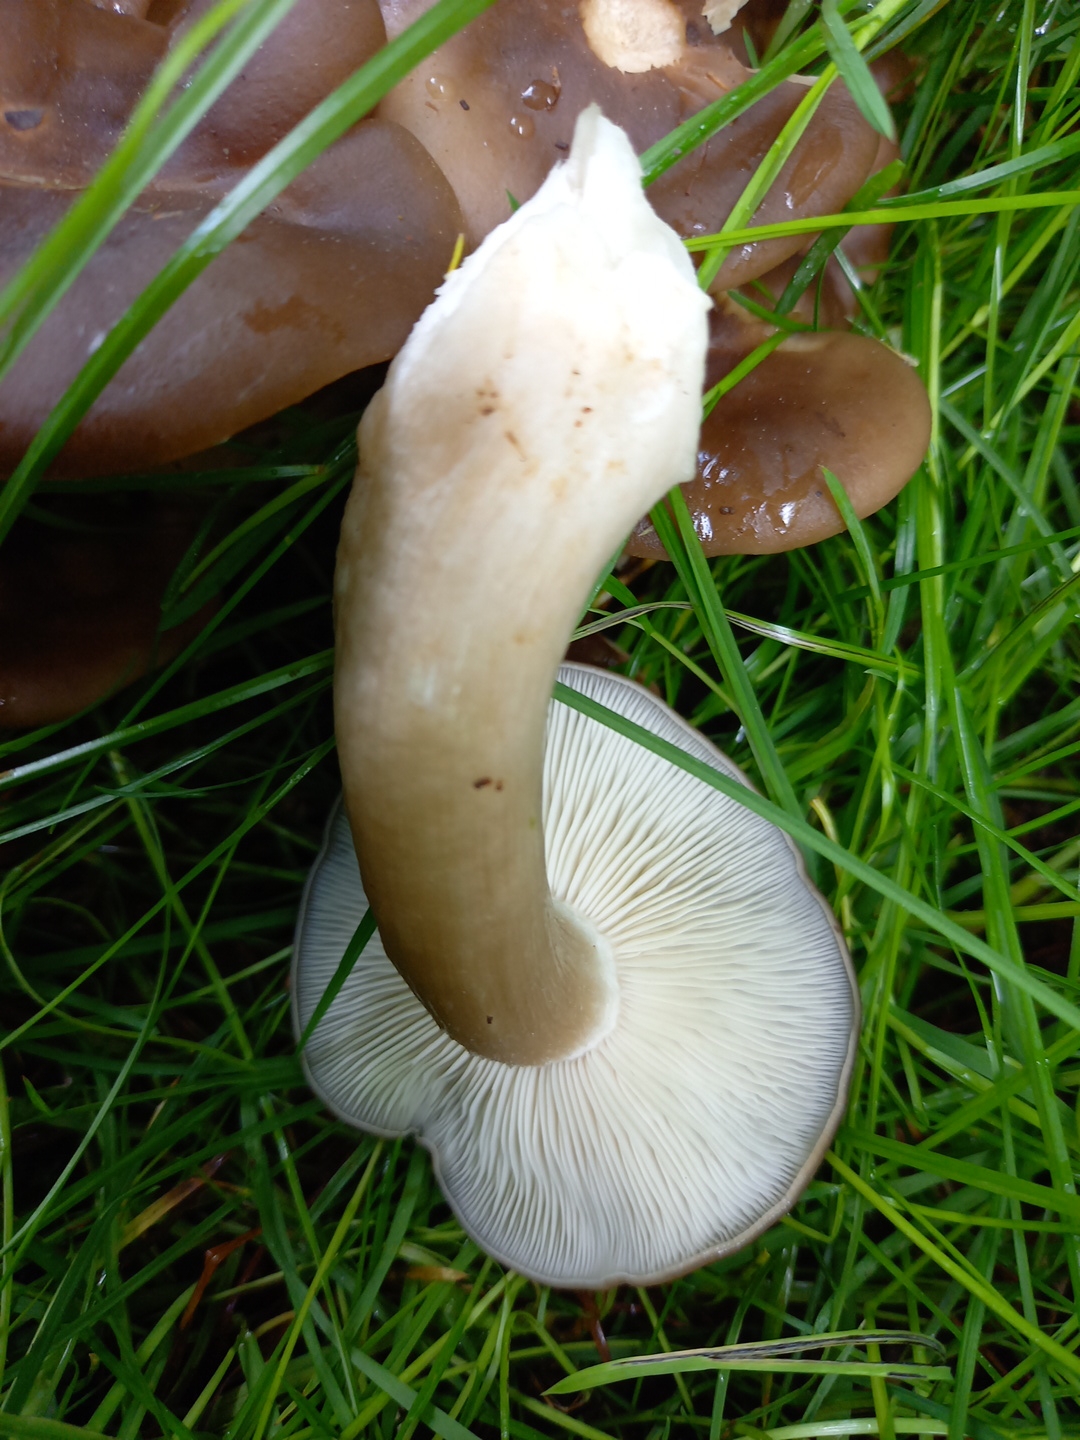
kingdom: Fungi
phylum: Basidiomycota
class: Agaricomycetes
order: Agaricales
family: Lyophyllaceae
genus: Lyophyllum
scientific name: Lyophyllum decastes
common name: røggrå gråblad
